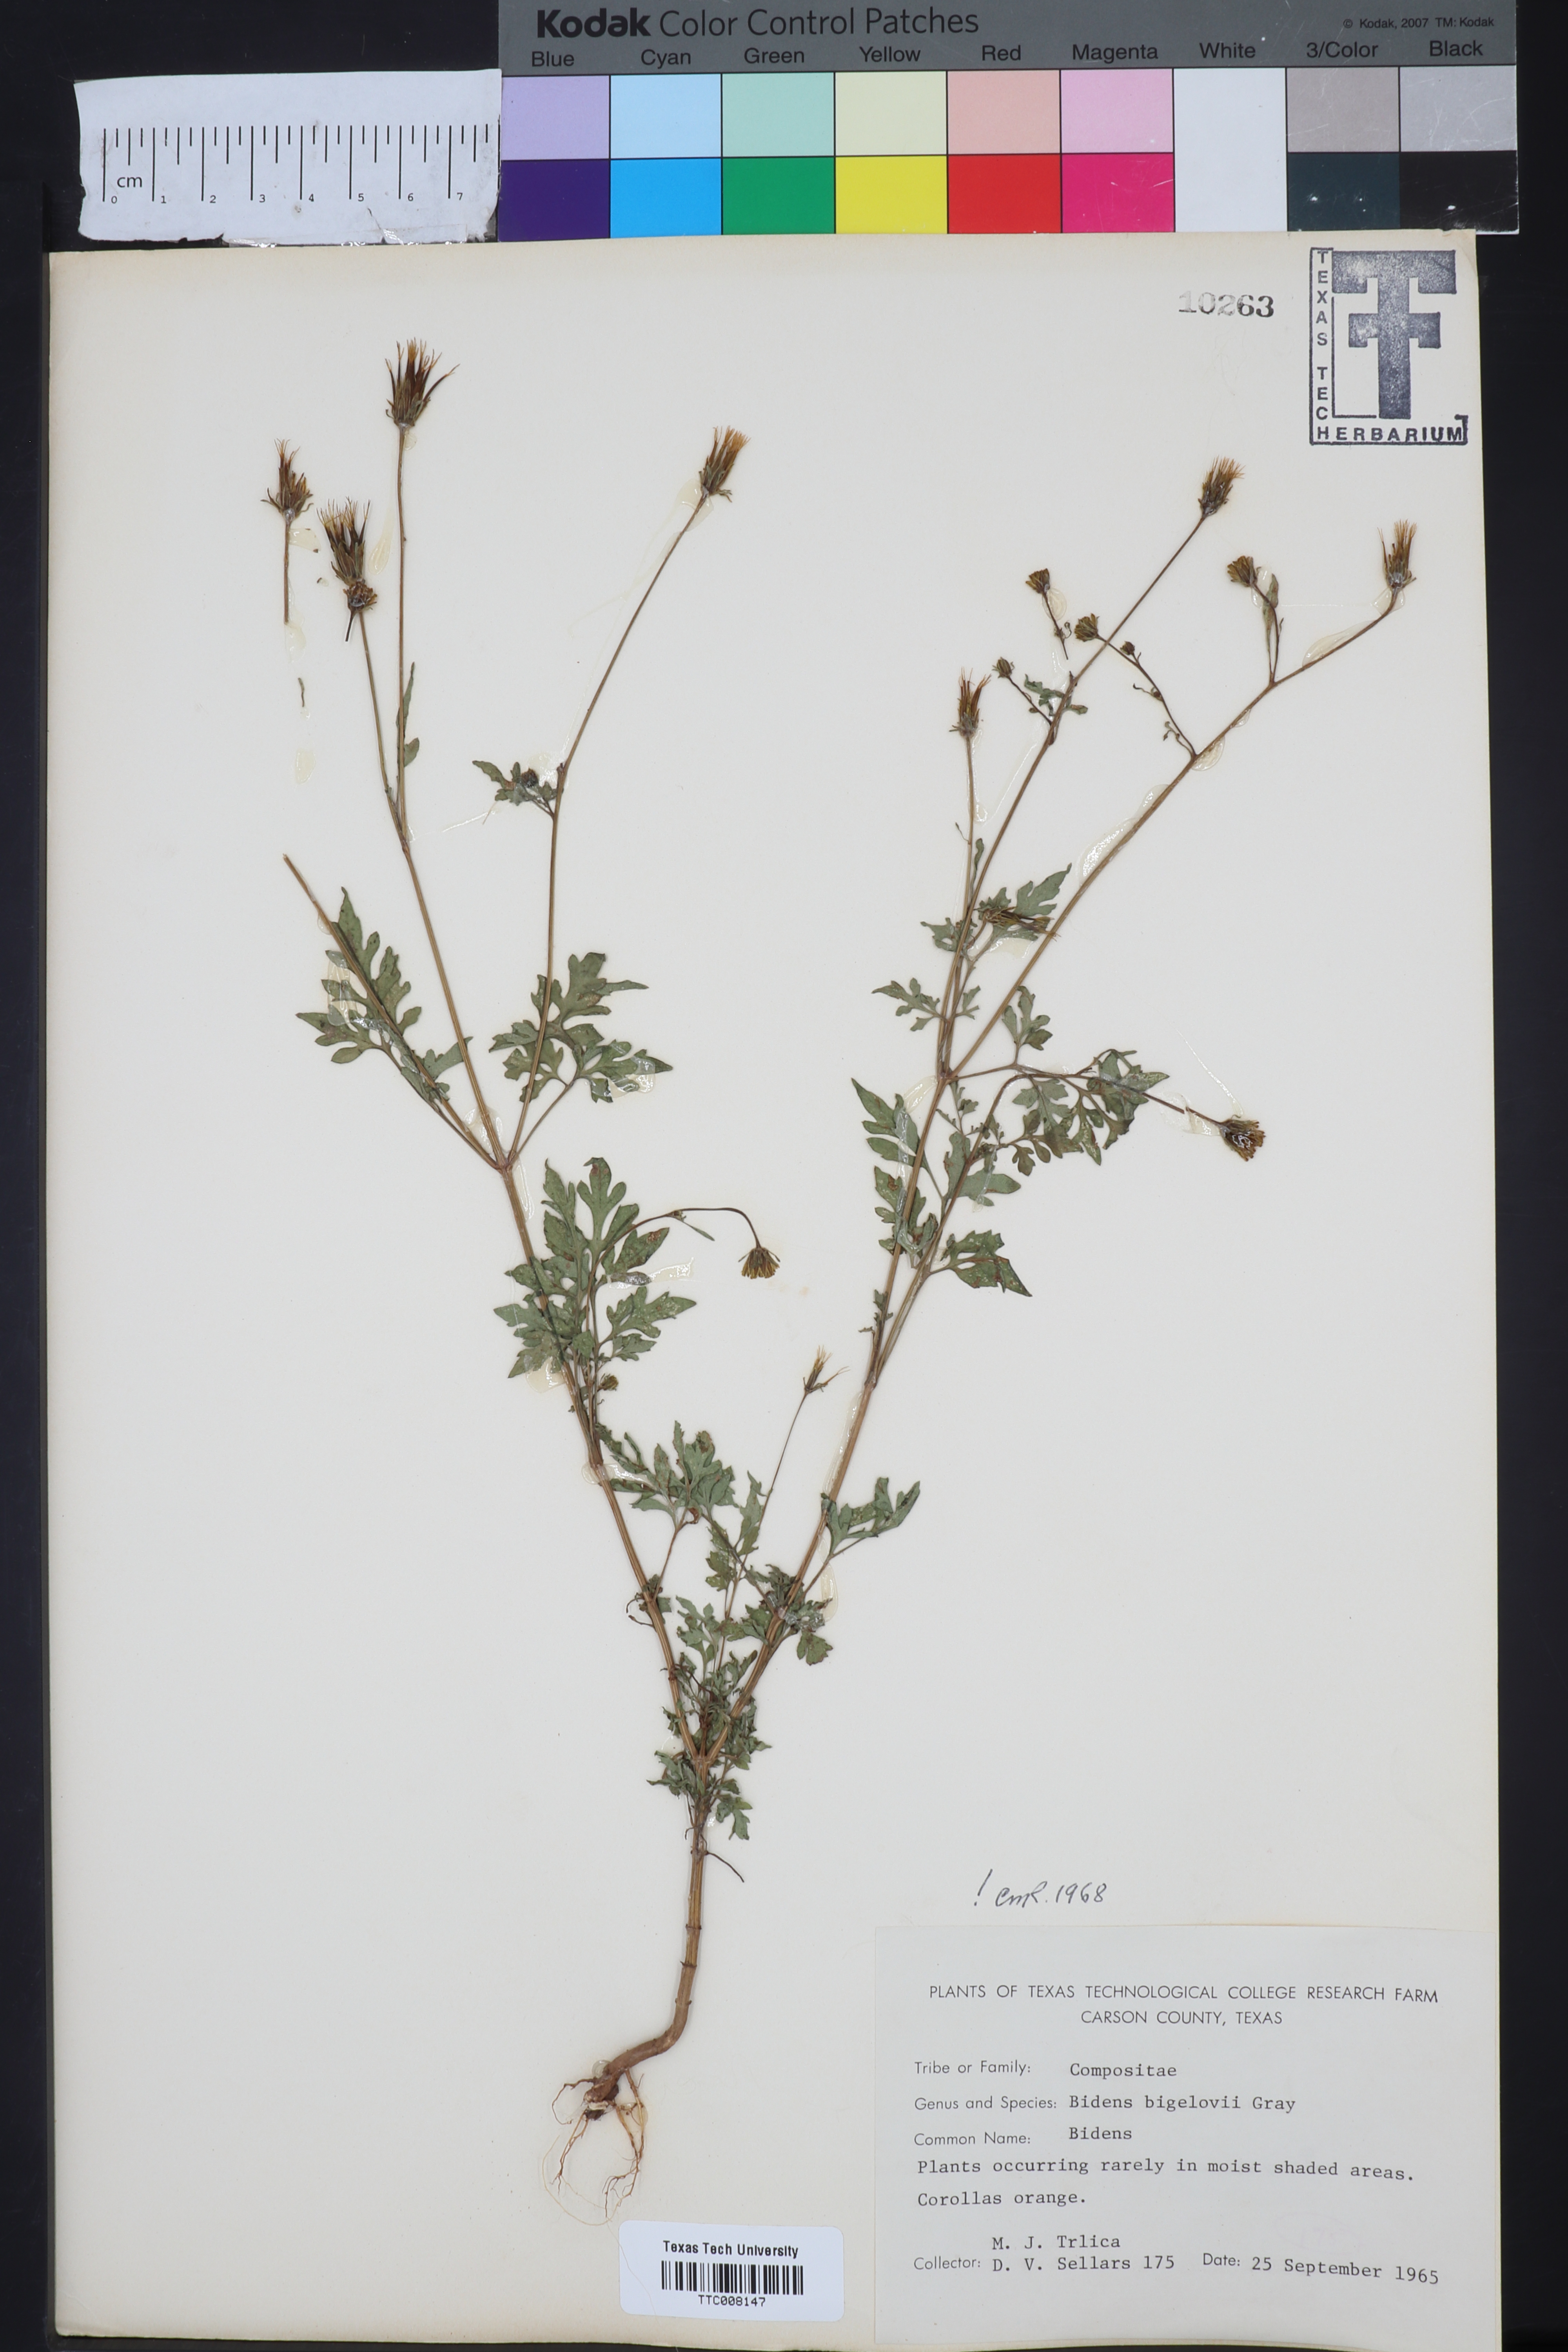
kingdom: Plantae
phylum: Tracheophyta
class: Magnoliopsida
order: Asterales
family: Asteraceae
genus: Bidens
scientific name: Bidens bigelovii
